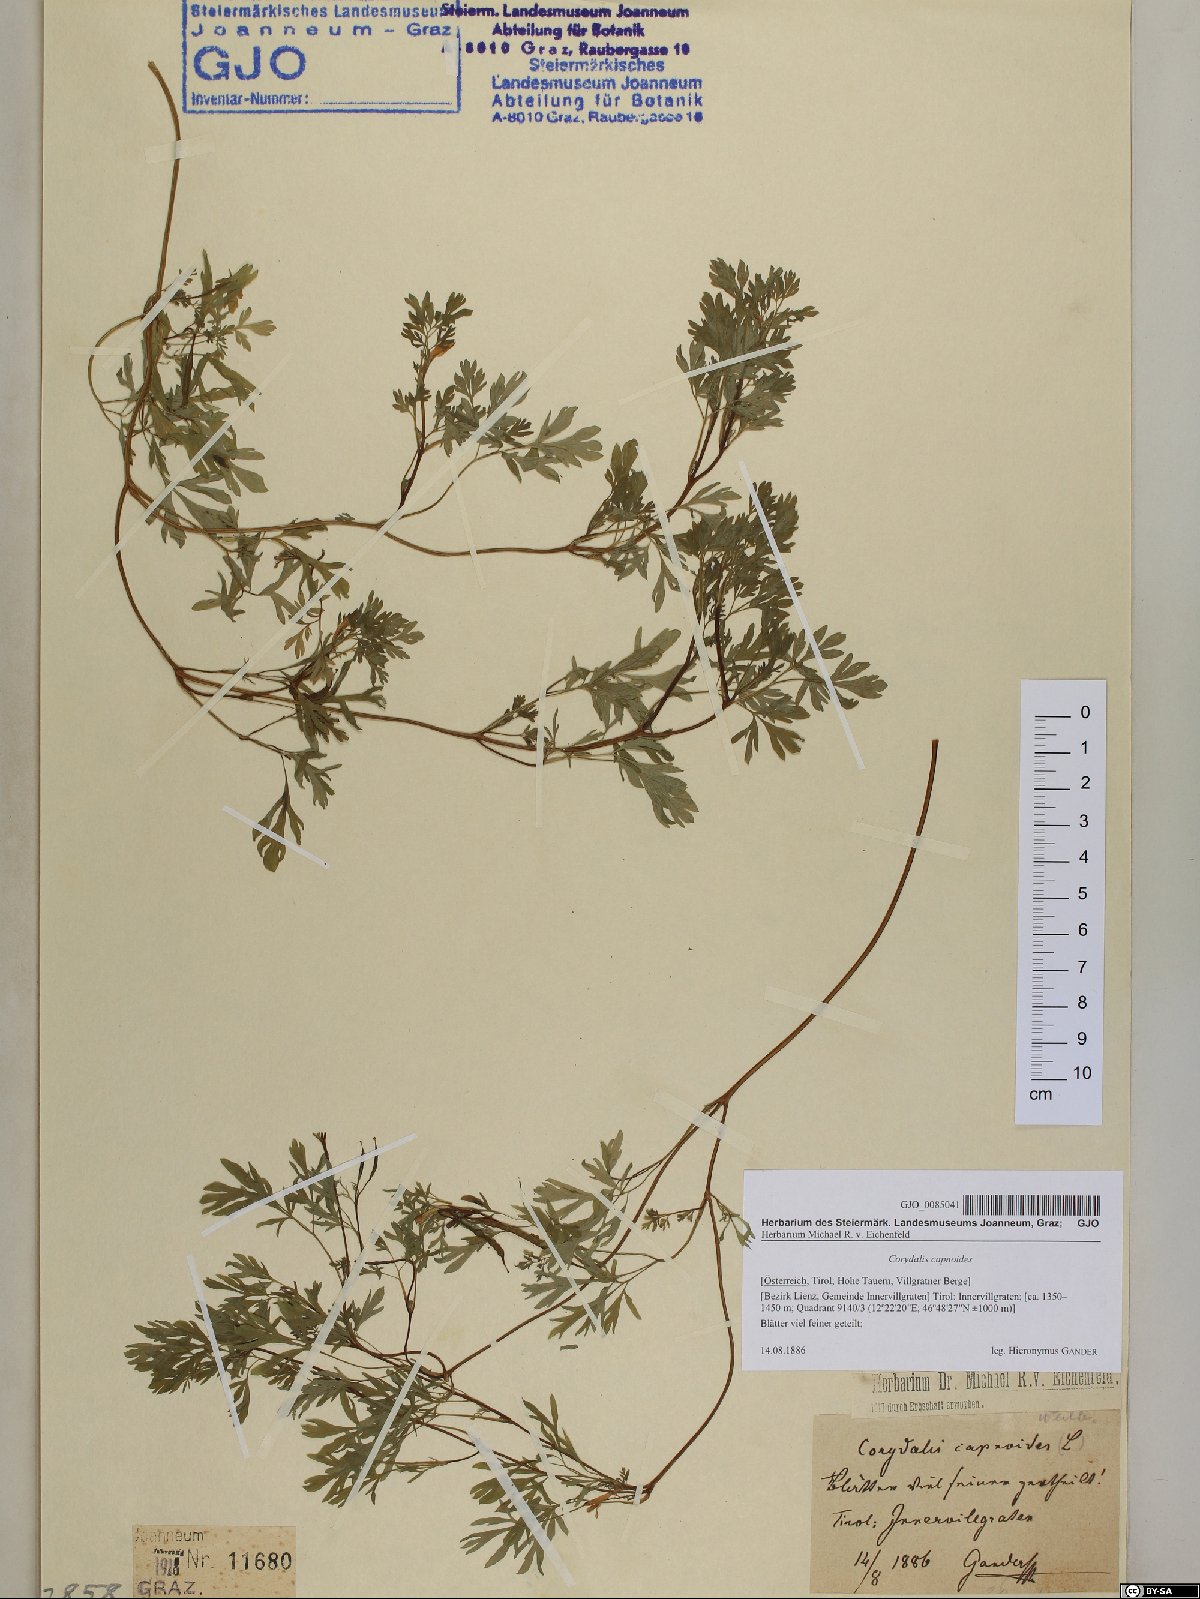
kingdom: Plantae
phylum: Tracheophyta
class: Magnoliopsida
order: Ranunculales
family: Papaveraceae
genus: Corydalis
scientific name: Corydalis capnoides
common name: Beaked corydalis
